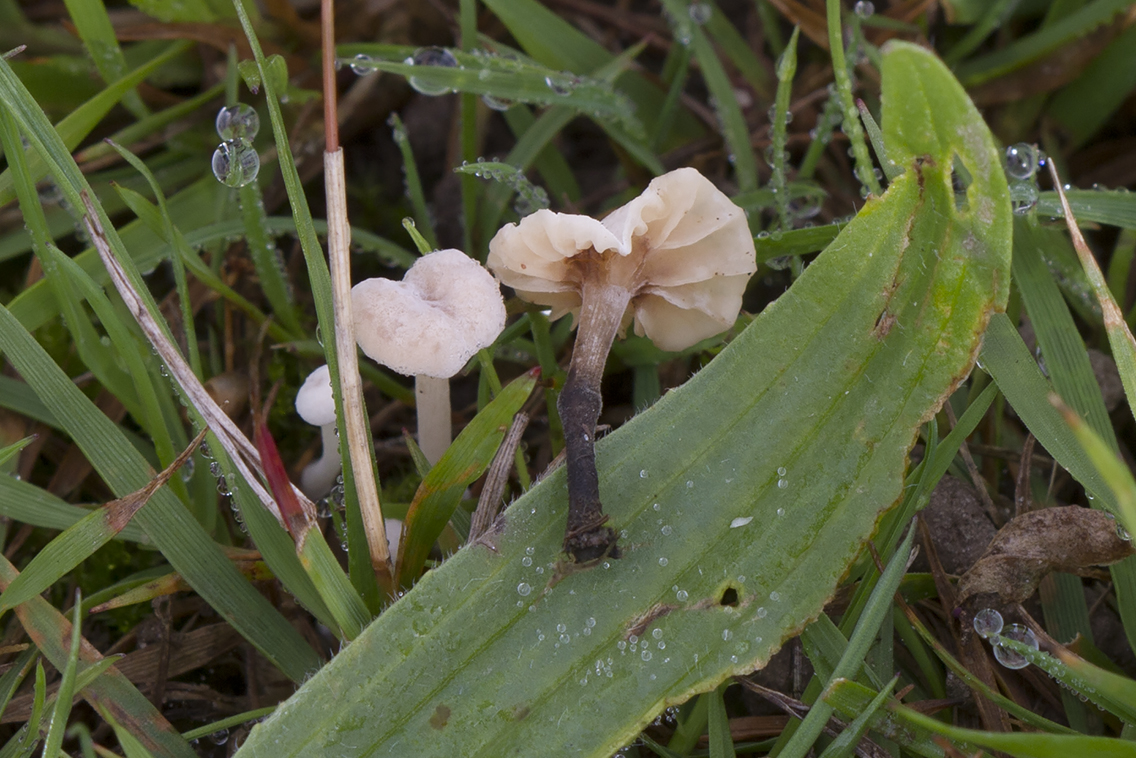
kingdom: Fungi
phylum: Basidiomycota
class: Agaricomycetes
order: Agaricales
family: Omphalotaceae
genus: Marasmiellus
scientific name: Marasmiellus tricolor
